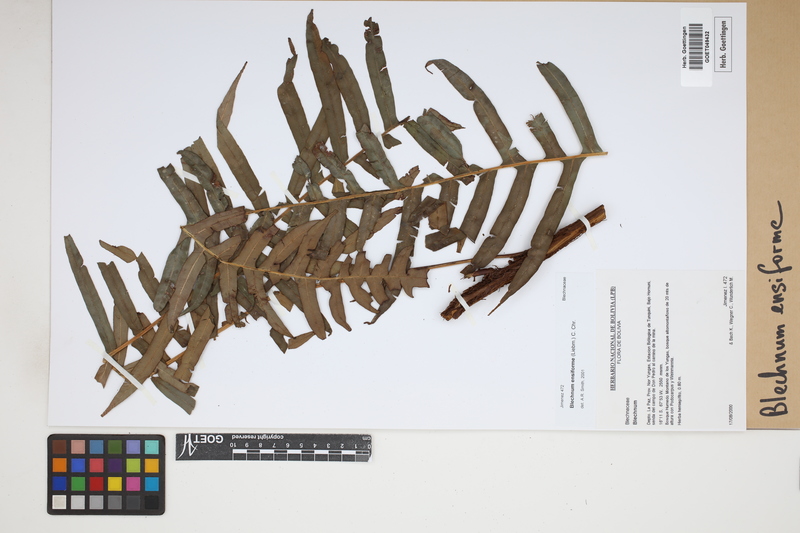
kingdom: Plantae
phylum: Tracheophyta
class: Polypodiopsida
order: Polypodiales
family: Blechnaceae
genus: Lomaridium
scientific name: Lomaridium ensiforme
